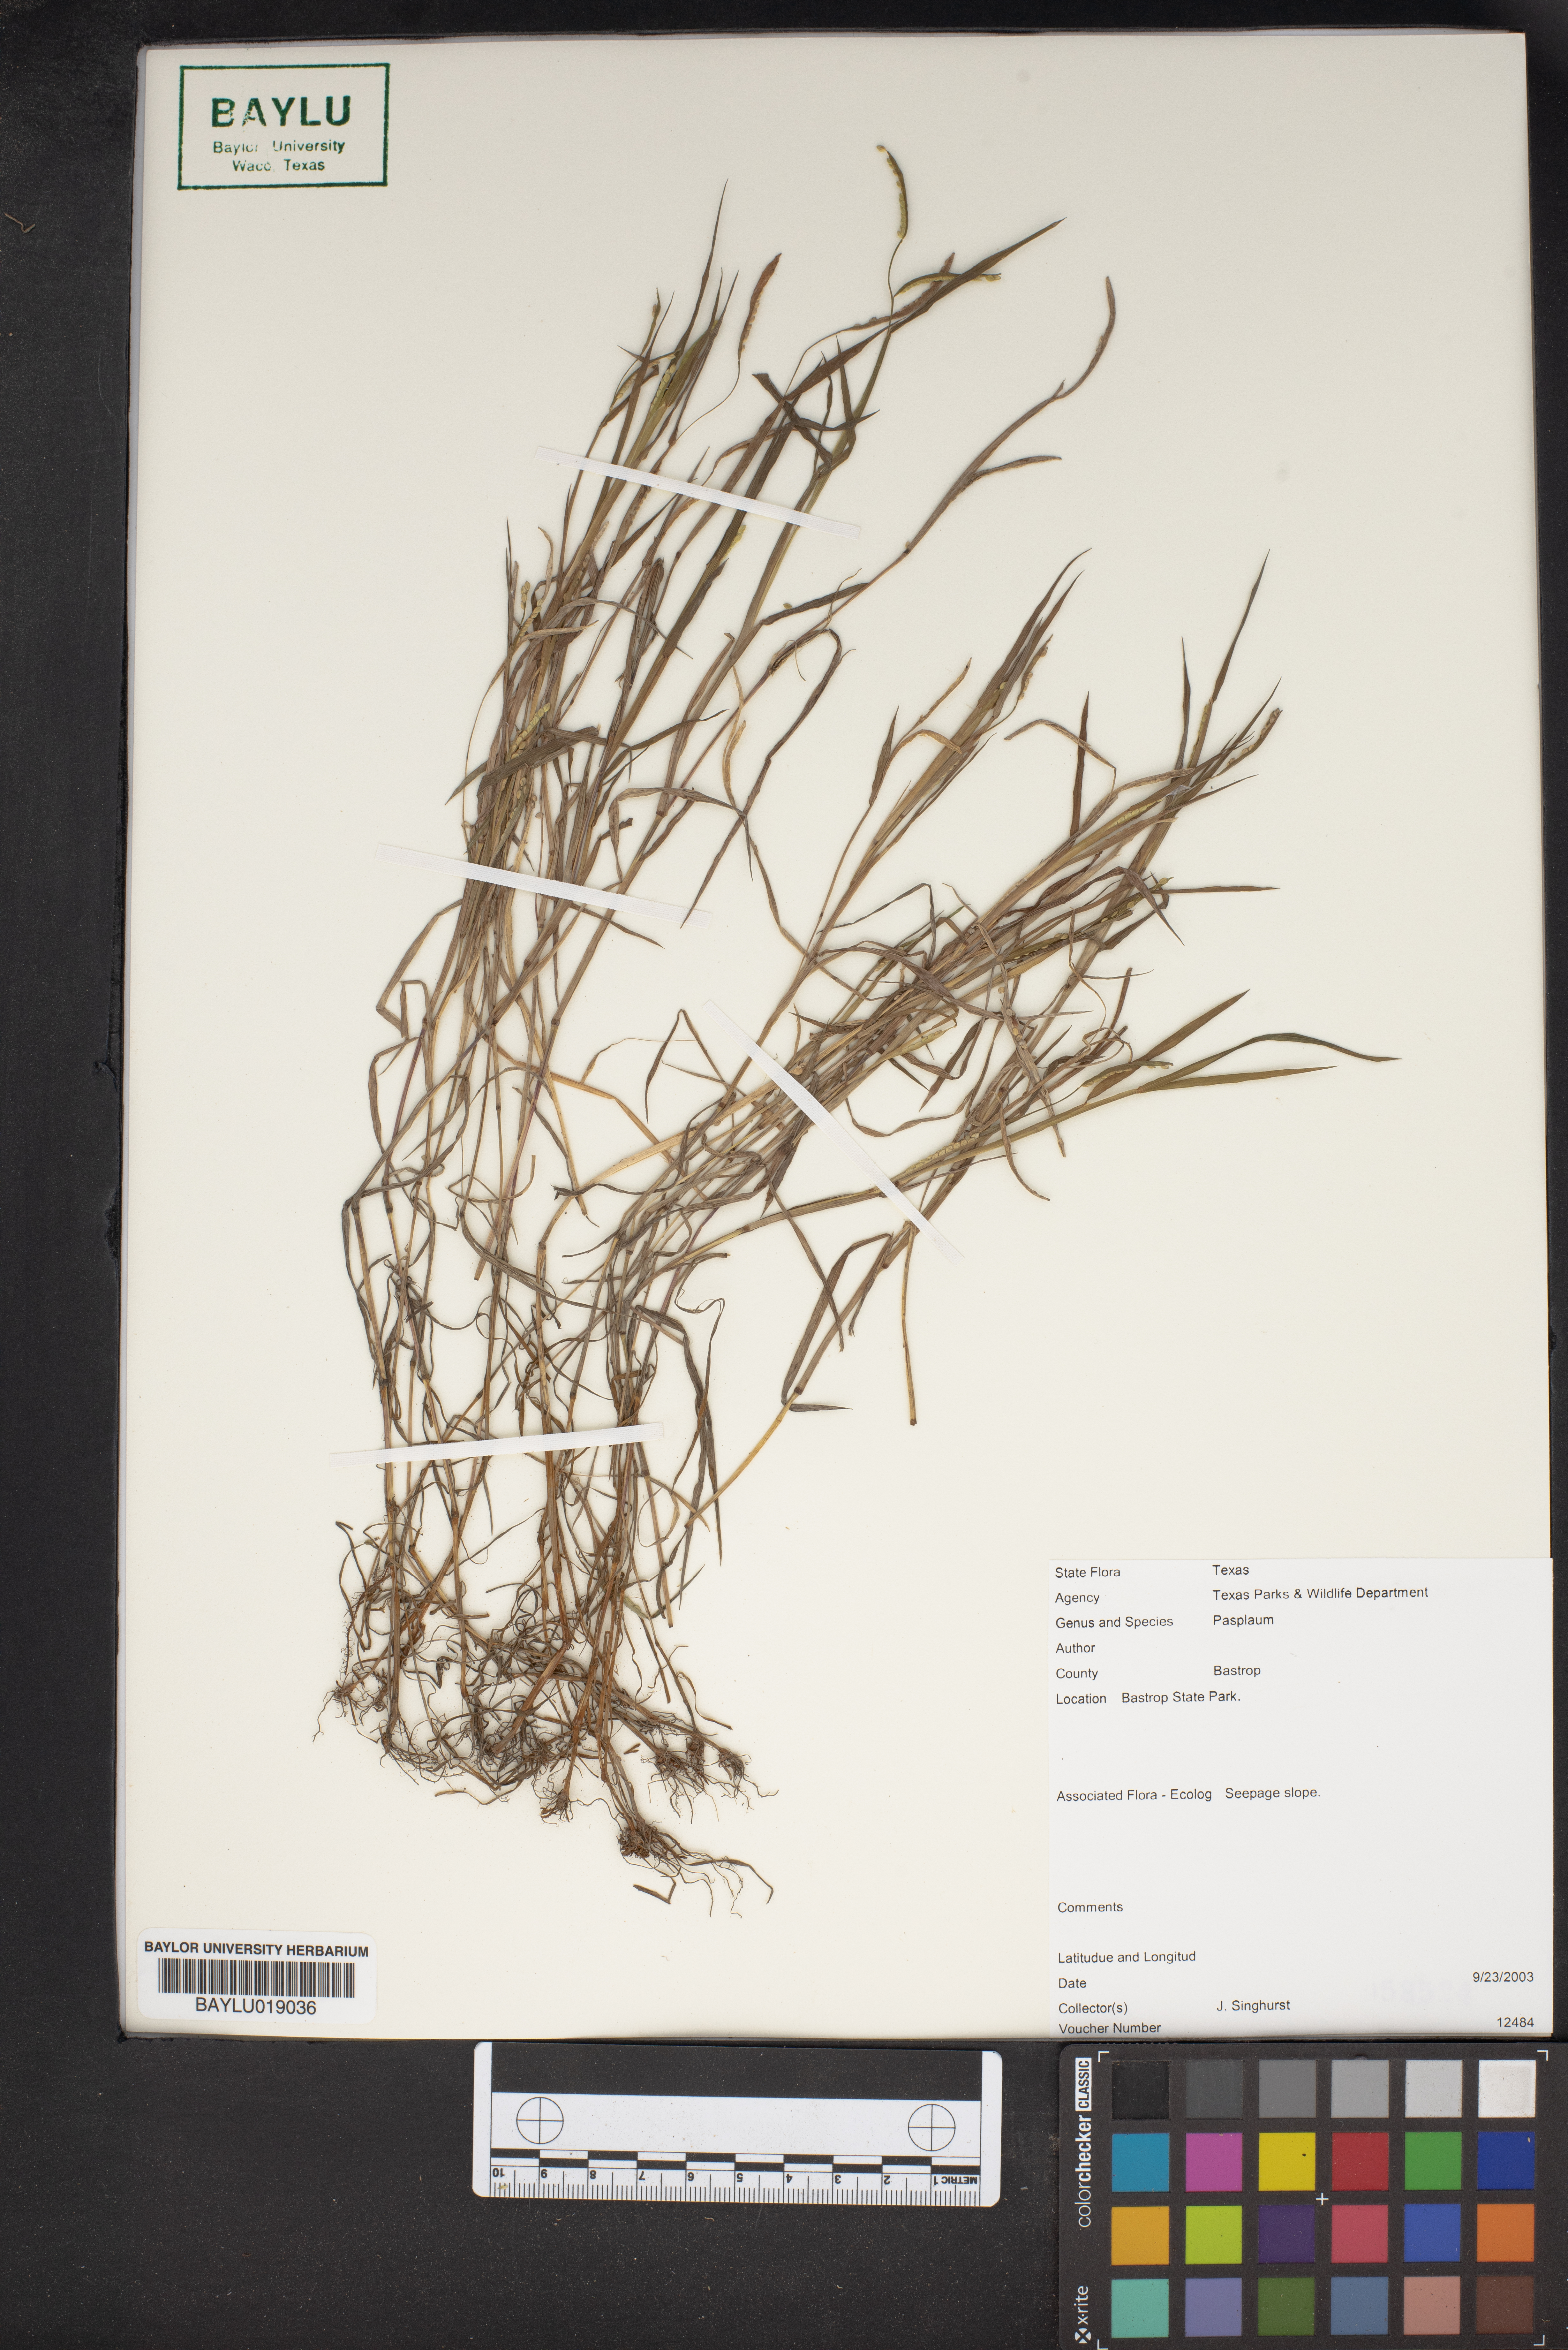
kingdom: Plantae
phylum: Tracheophyta
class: Liliopsida
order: Poales
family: Poaceae
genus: Paspalum
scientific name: Paspalum
